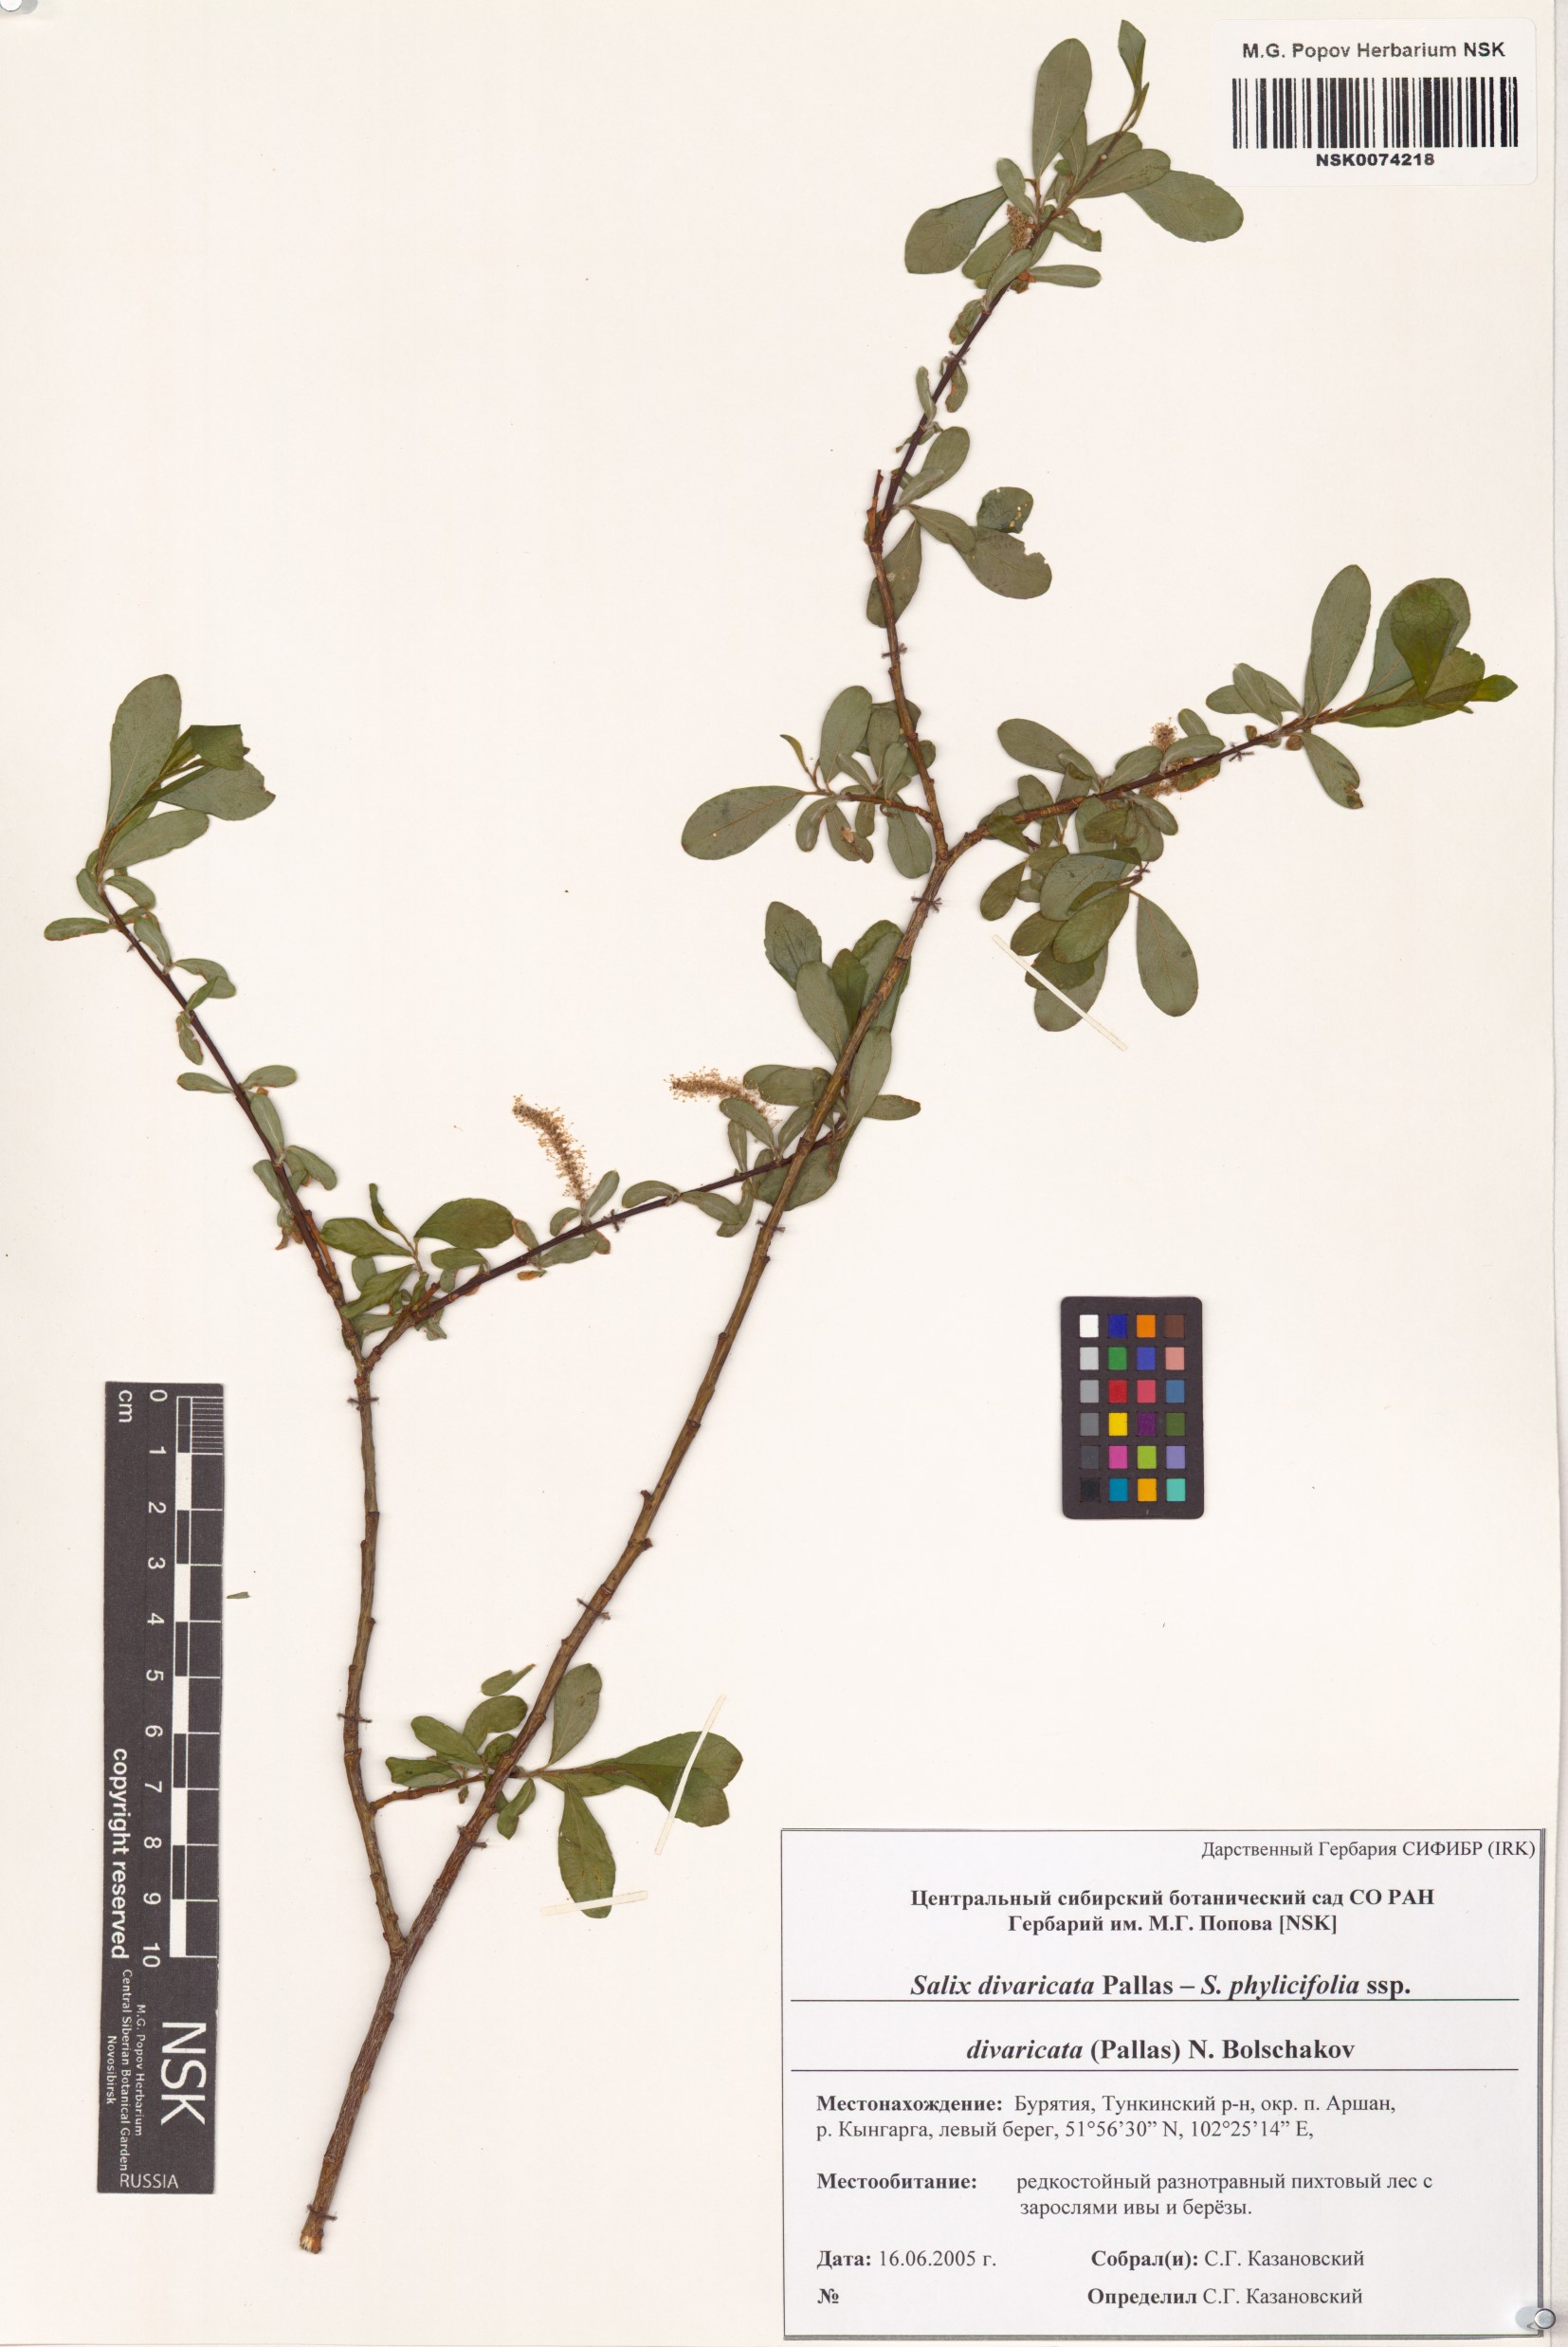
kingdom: Plantae
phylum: Tracheophyta
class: Magnoliopsida
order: Malpighiales
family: Salicaceae
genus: Salix
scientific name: Salix divaricata
